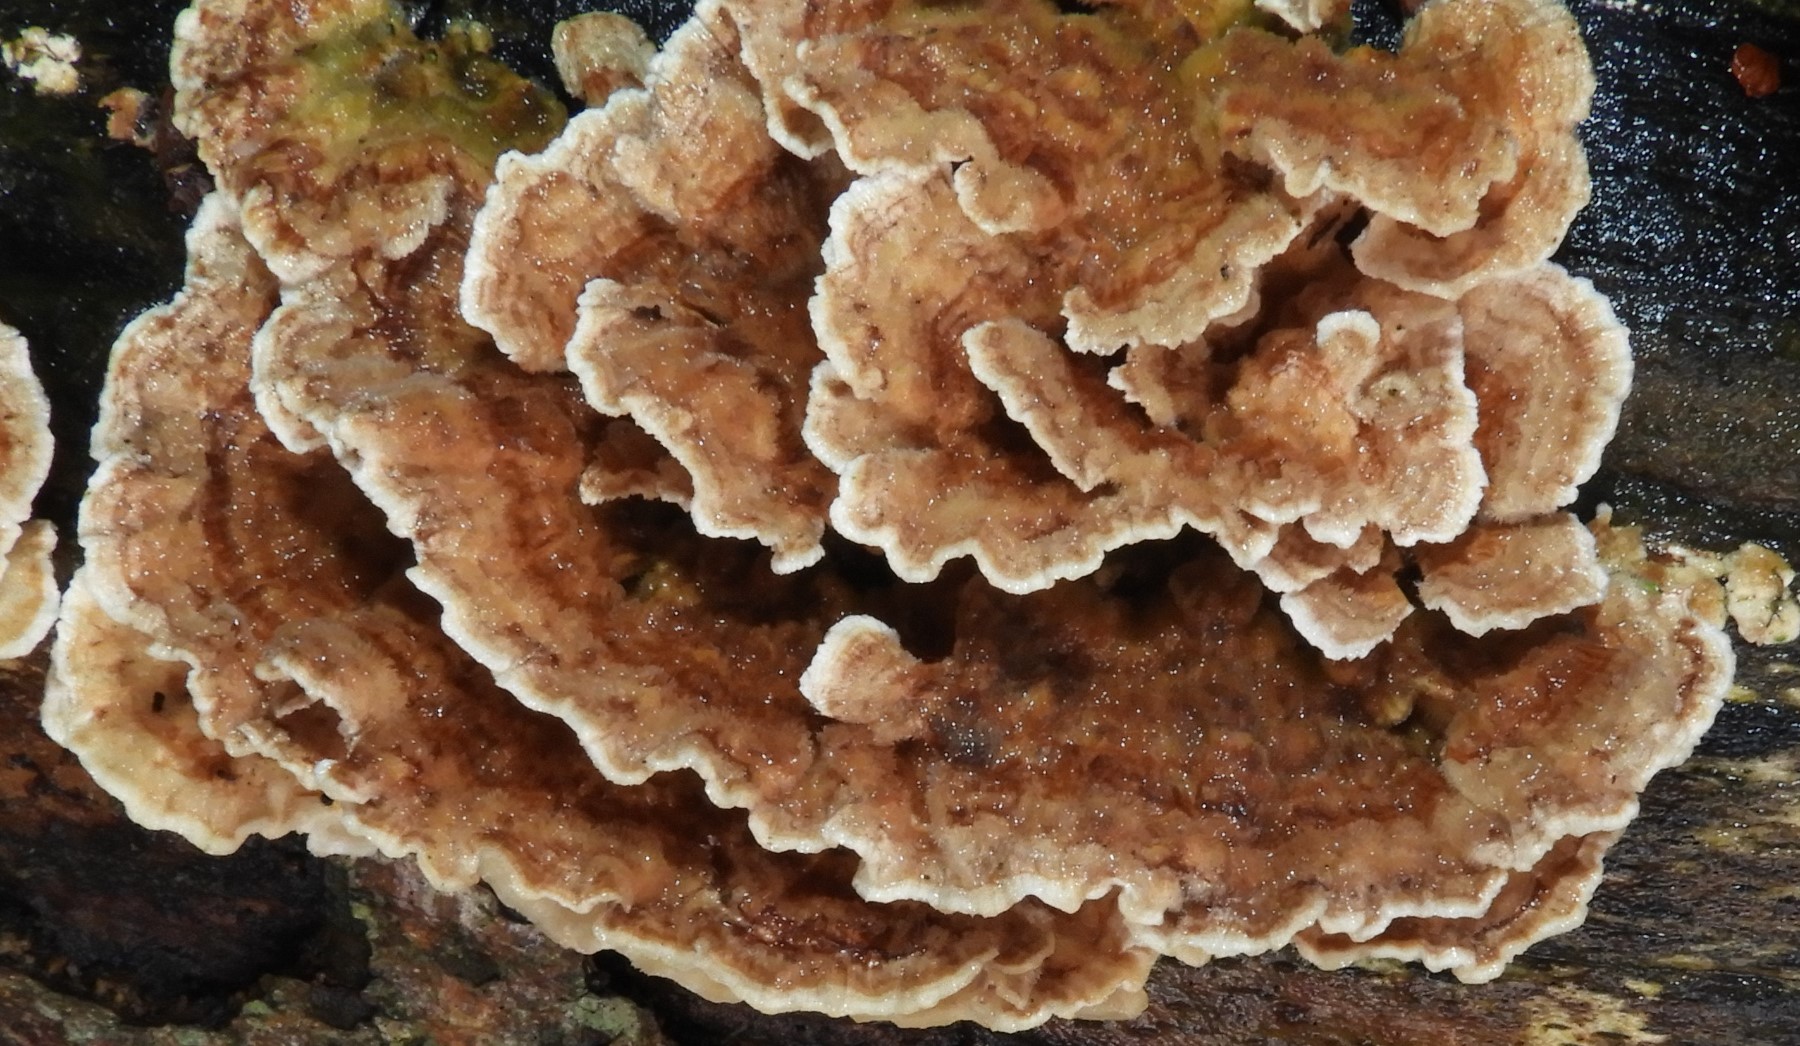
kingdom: Fungi
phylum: Basidiomycota
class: Agaricomycetes
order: Polyporales
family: Polyporaceae
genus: Trametes
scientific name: Trametes ochracea
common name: bæltet læderporesvamp
